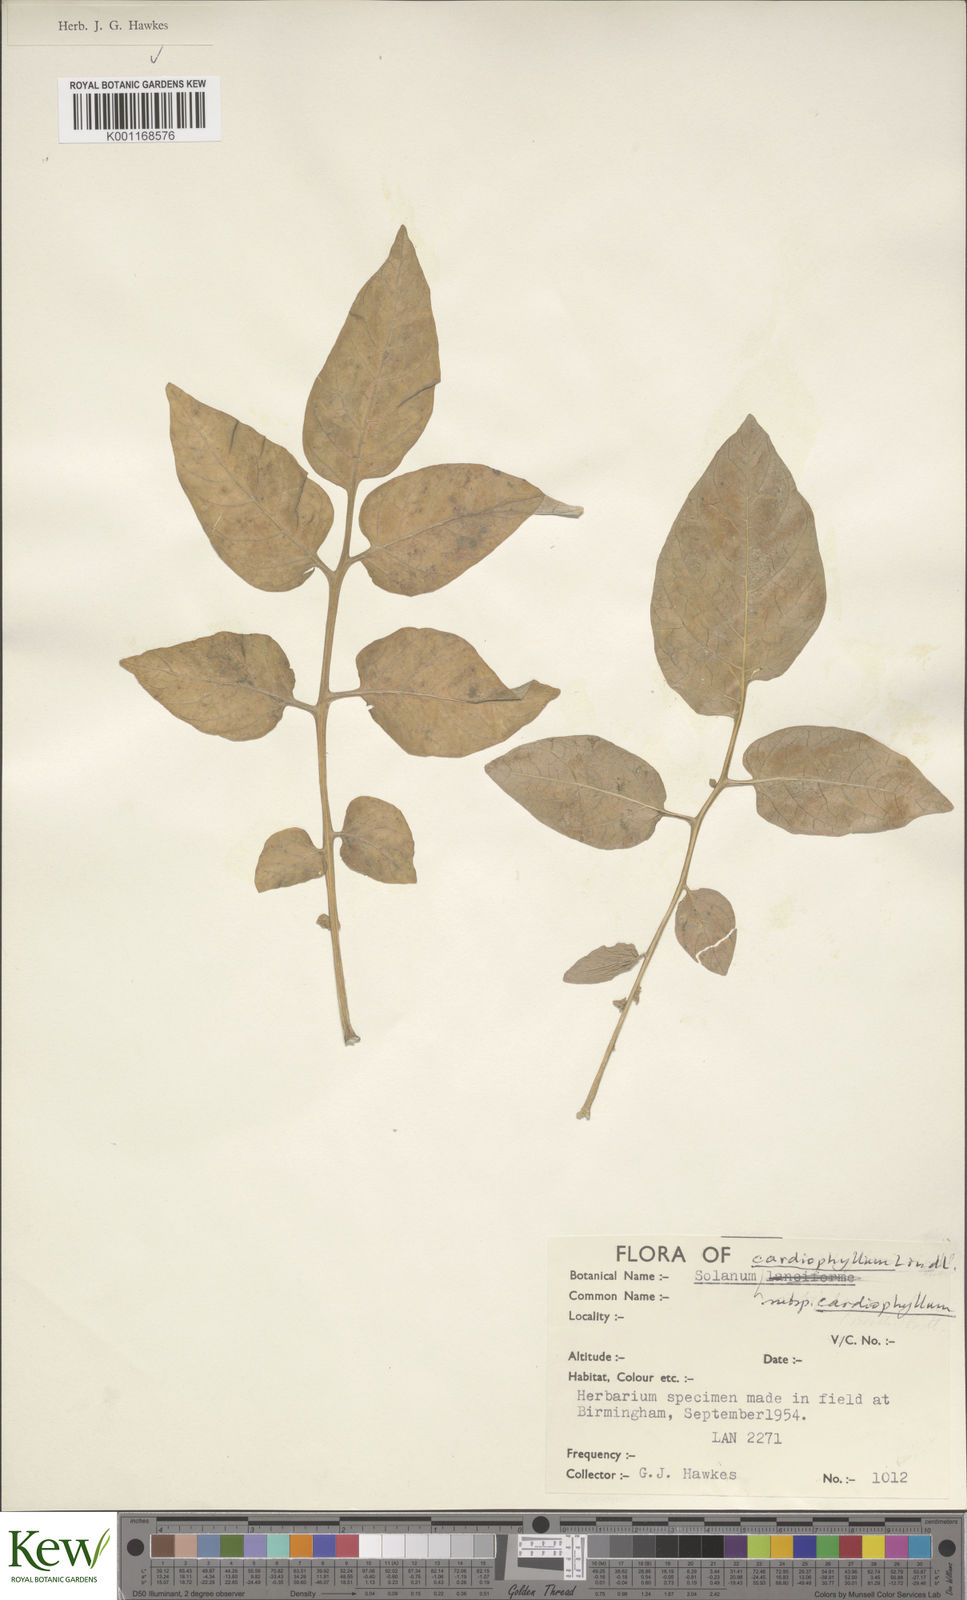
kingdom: Plantae
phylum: Tracheophyta
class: Magnoliopsida
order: Solanales
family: Solanaceae
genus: Solanum
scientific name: Solanum cardiophyllum
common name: Heartleaf horsenettle
